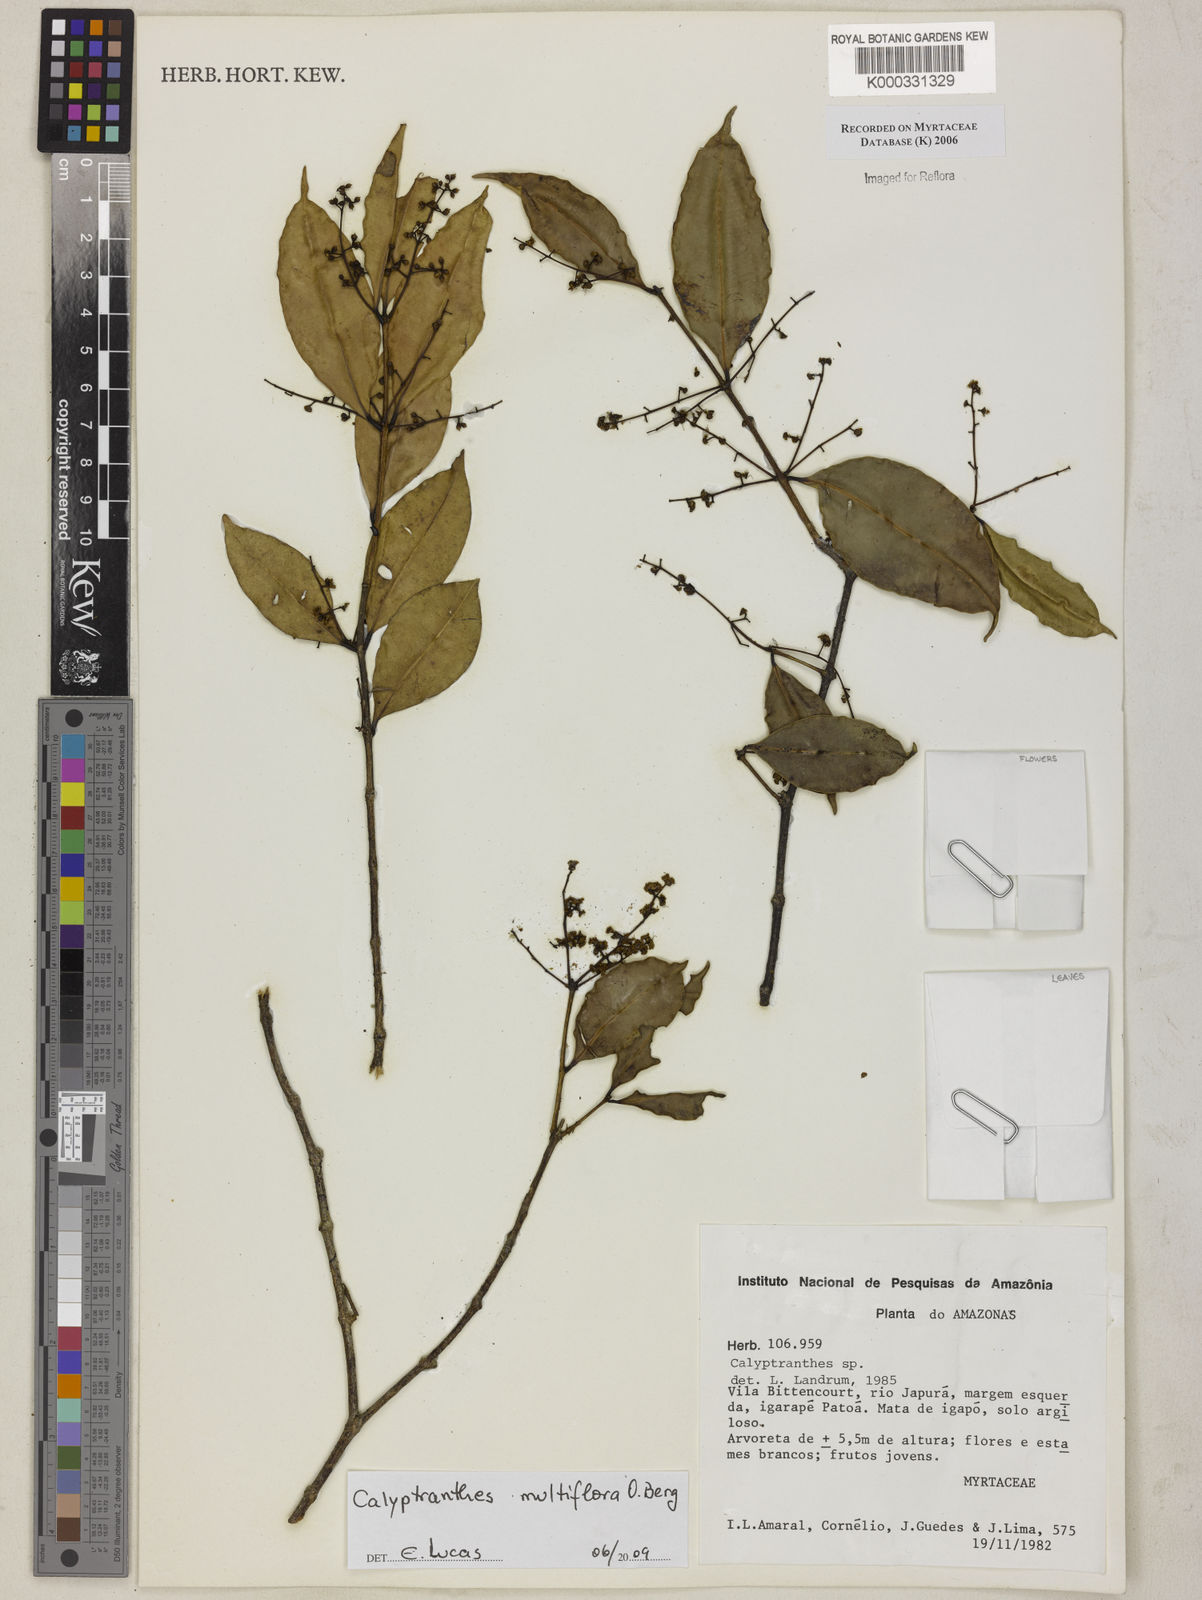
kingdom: Plantae
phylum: Tracheophyta
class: Magnoliopsida
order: Myrtales
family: Myrtaceae
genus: Calyptranthes
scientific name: Calyptranthes
